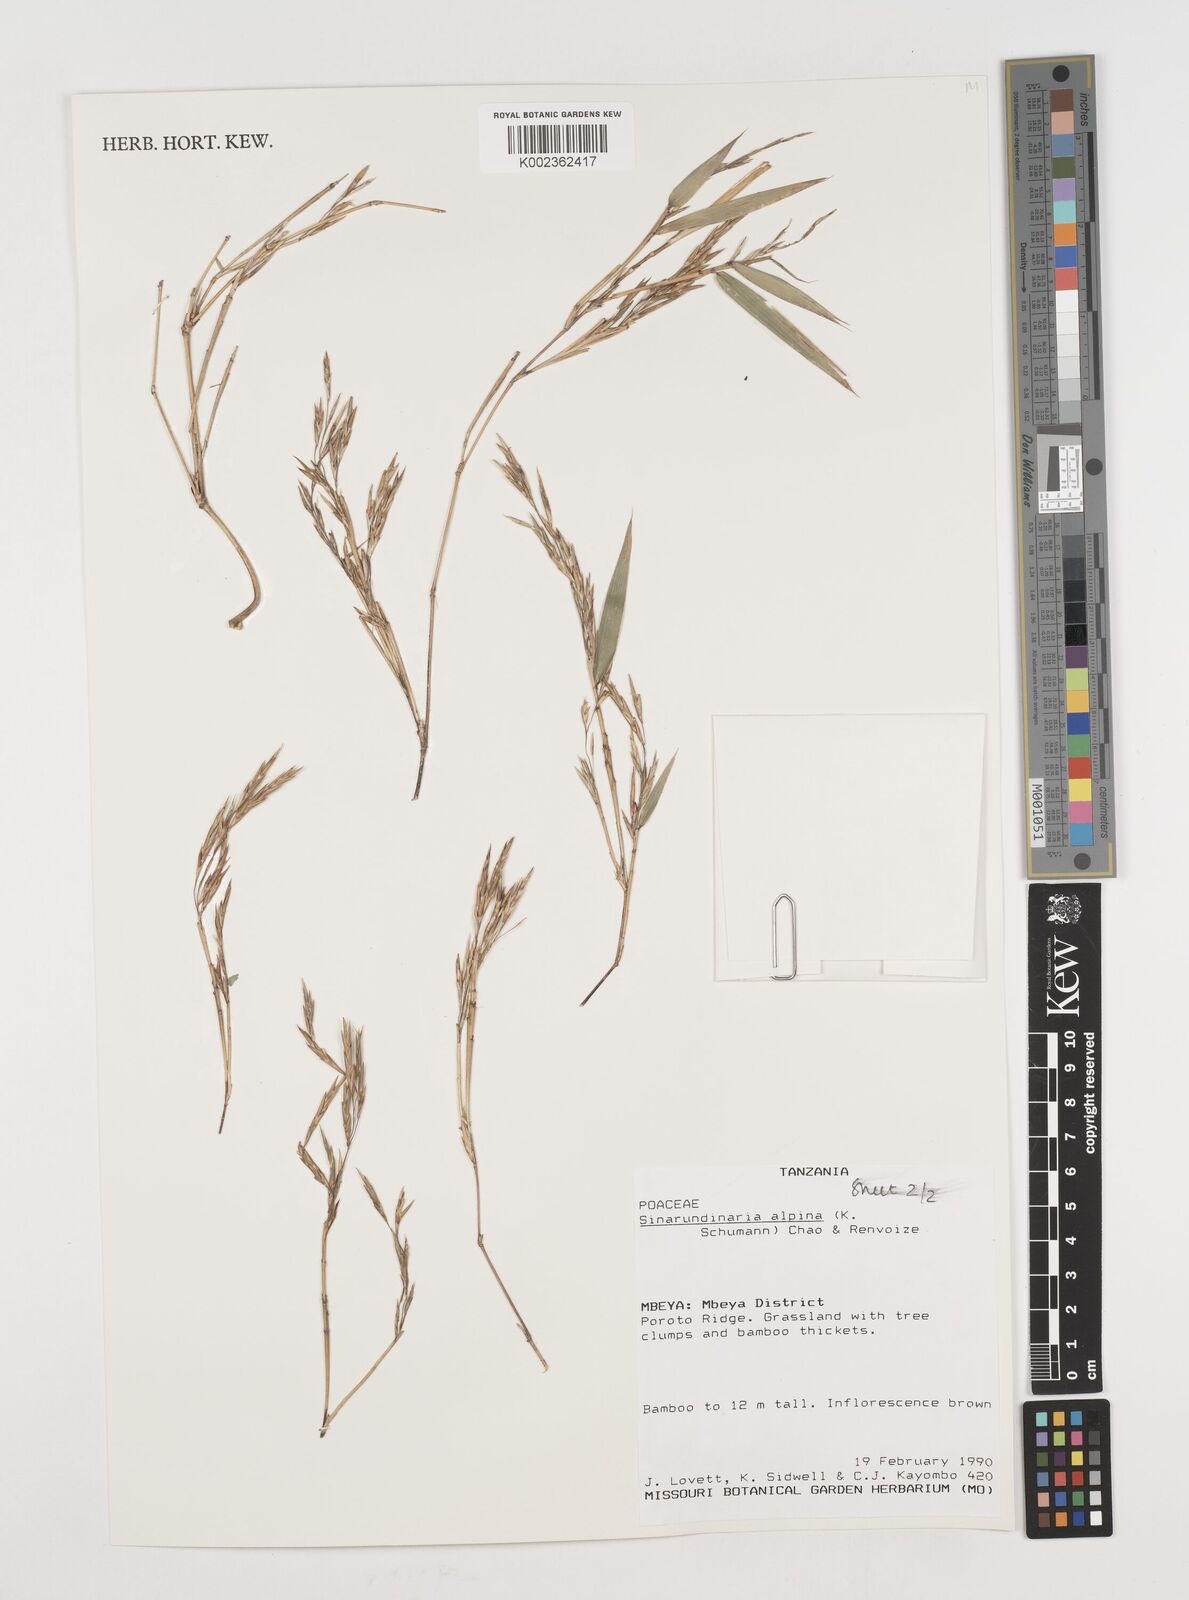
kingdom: Plantae
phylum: Tracheophyta
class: Liliopsida
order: Poales
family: Poaceae
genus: Oldeania
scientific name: Oldeania alpina
